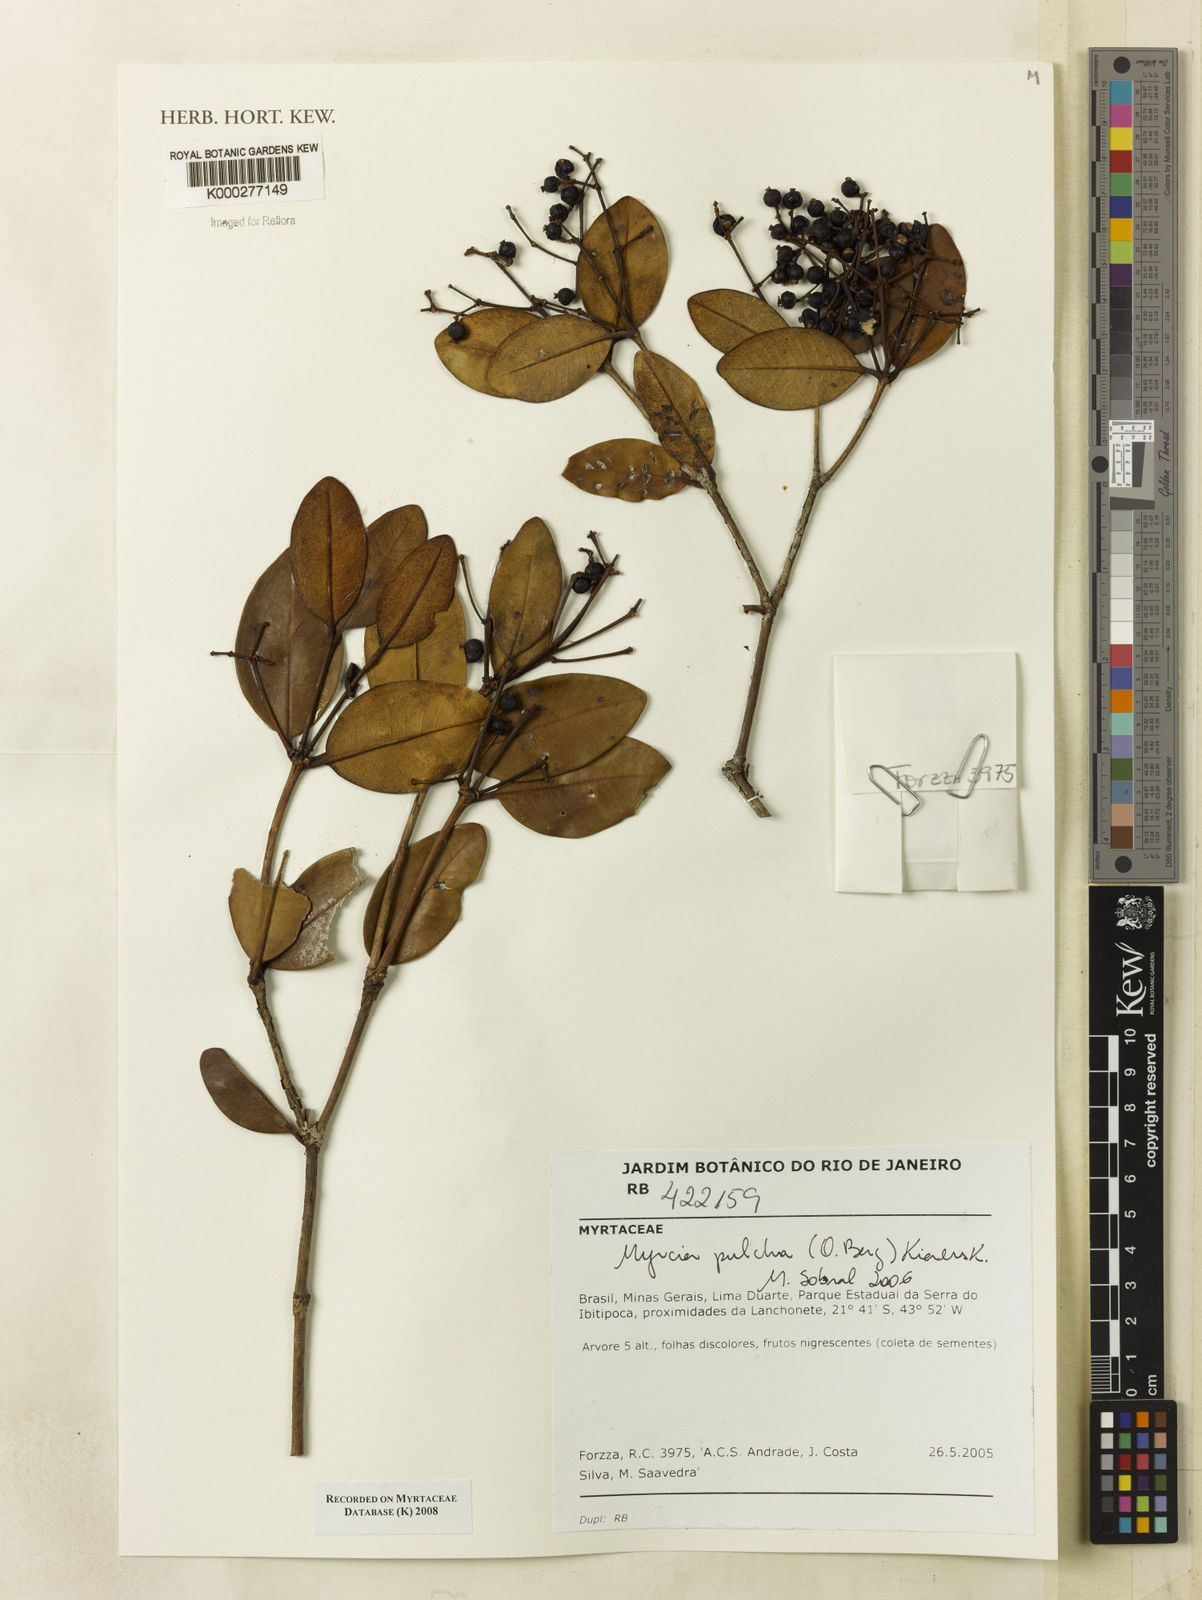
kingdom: Plantae
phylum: Tracheophyta
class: Magnoliopsida
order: Myrtales
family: Myrtaceae
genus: Myrcia
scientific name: Myrcia pulchra
